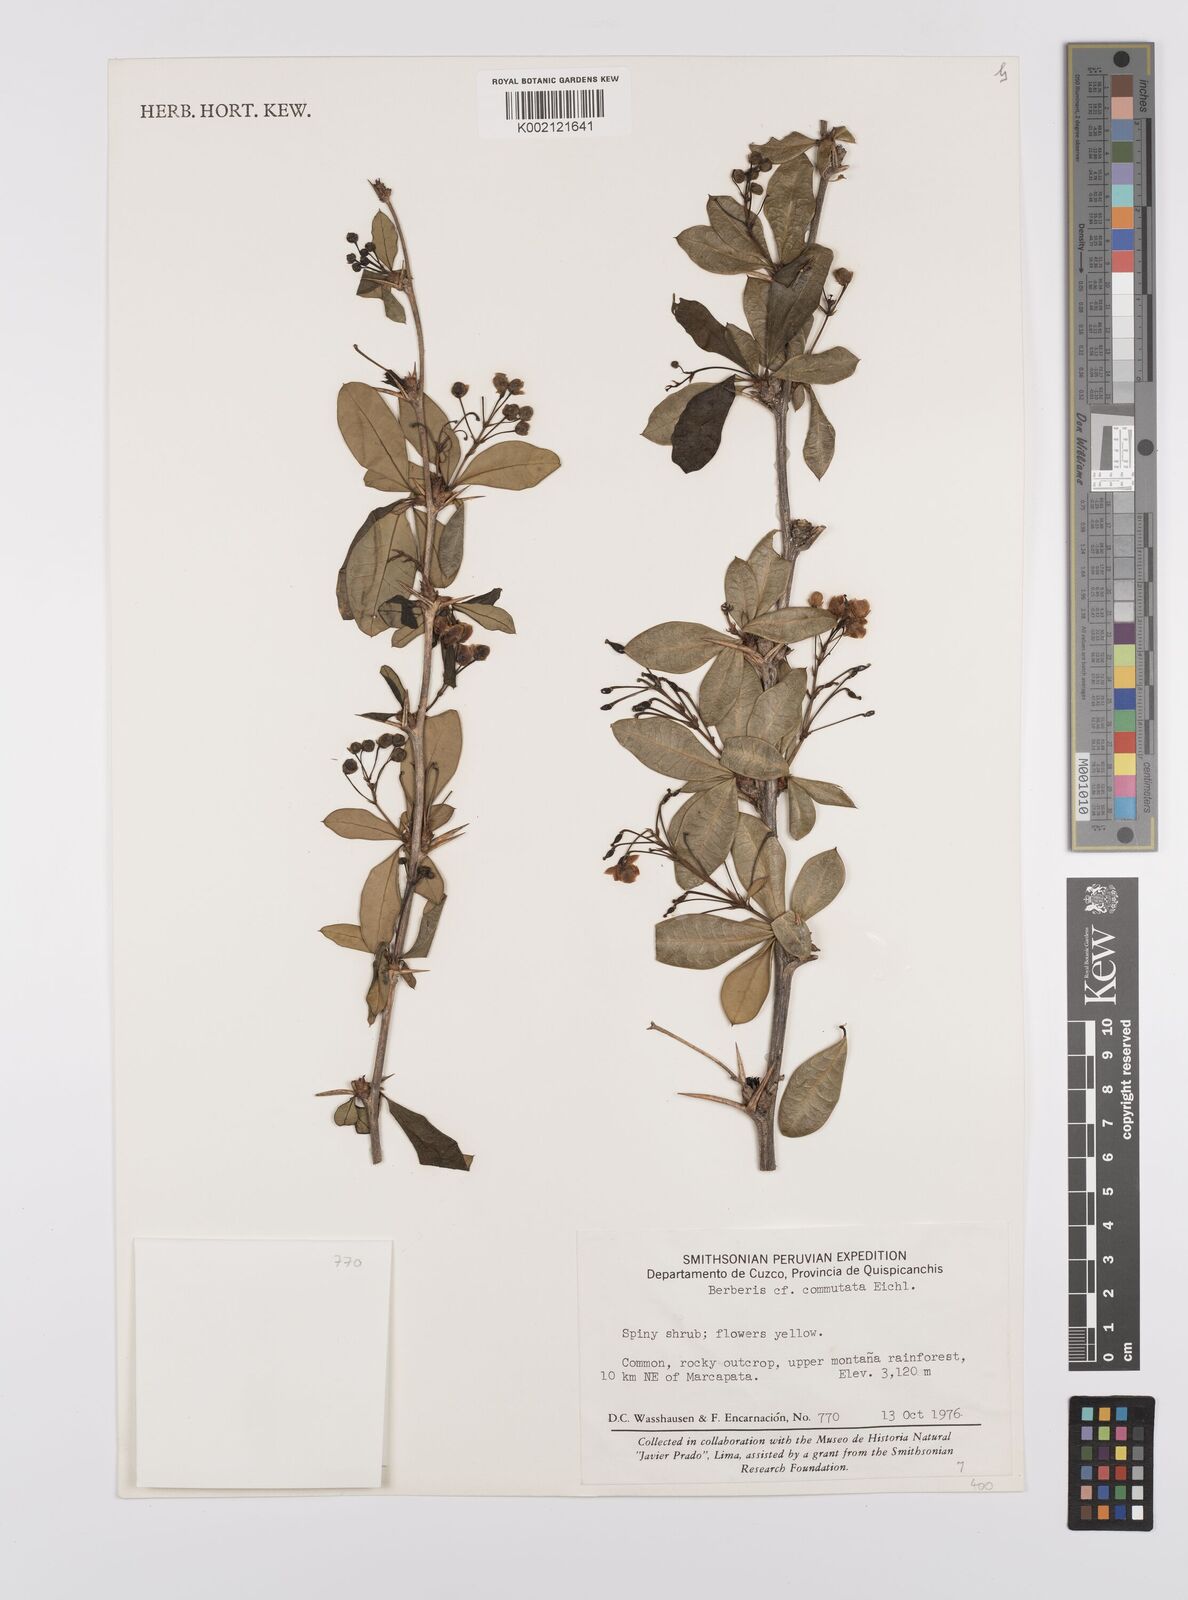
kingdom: Plantae
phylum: Tracheophyta
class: Magnoliopsida
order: Ranunculales
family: Berberidaceae
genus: Berberis
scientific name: Berberis commutata
